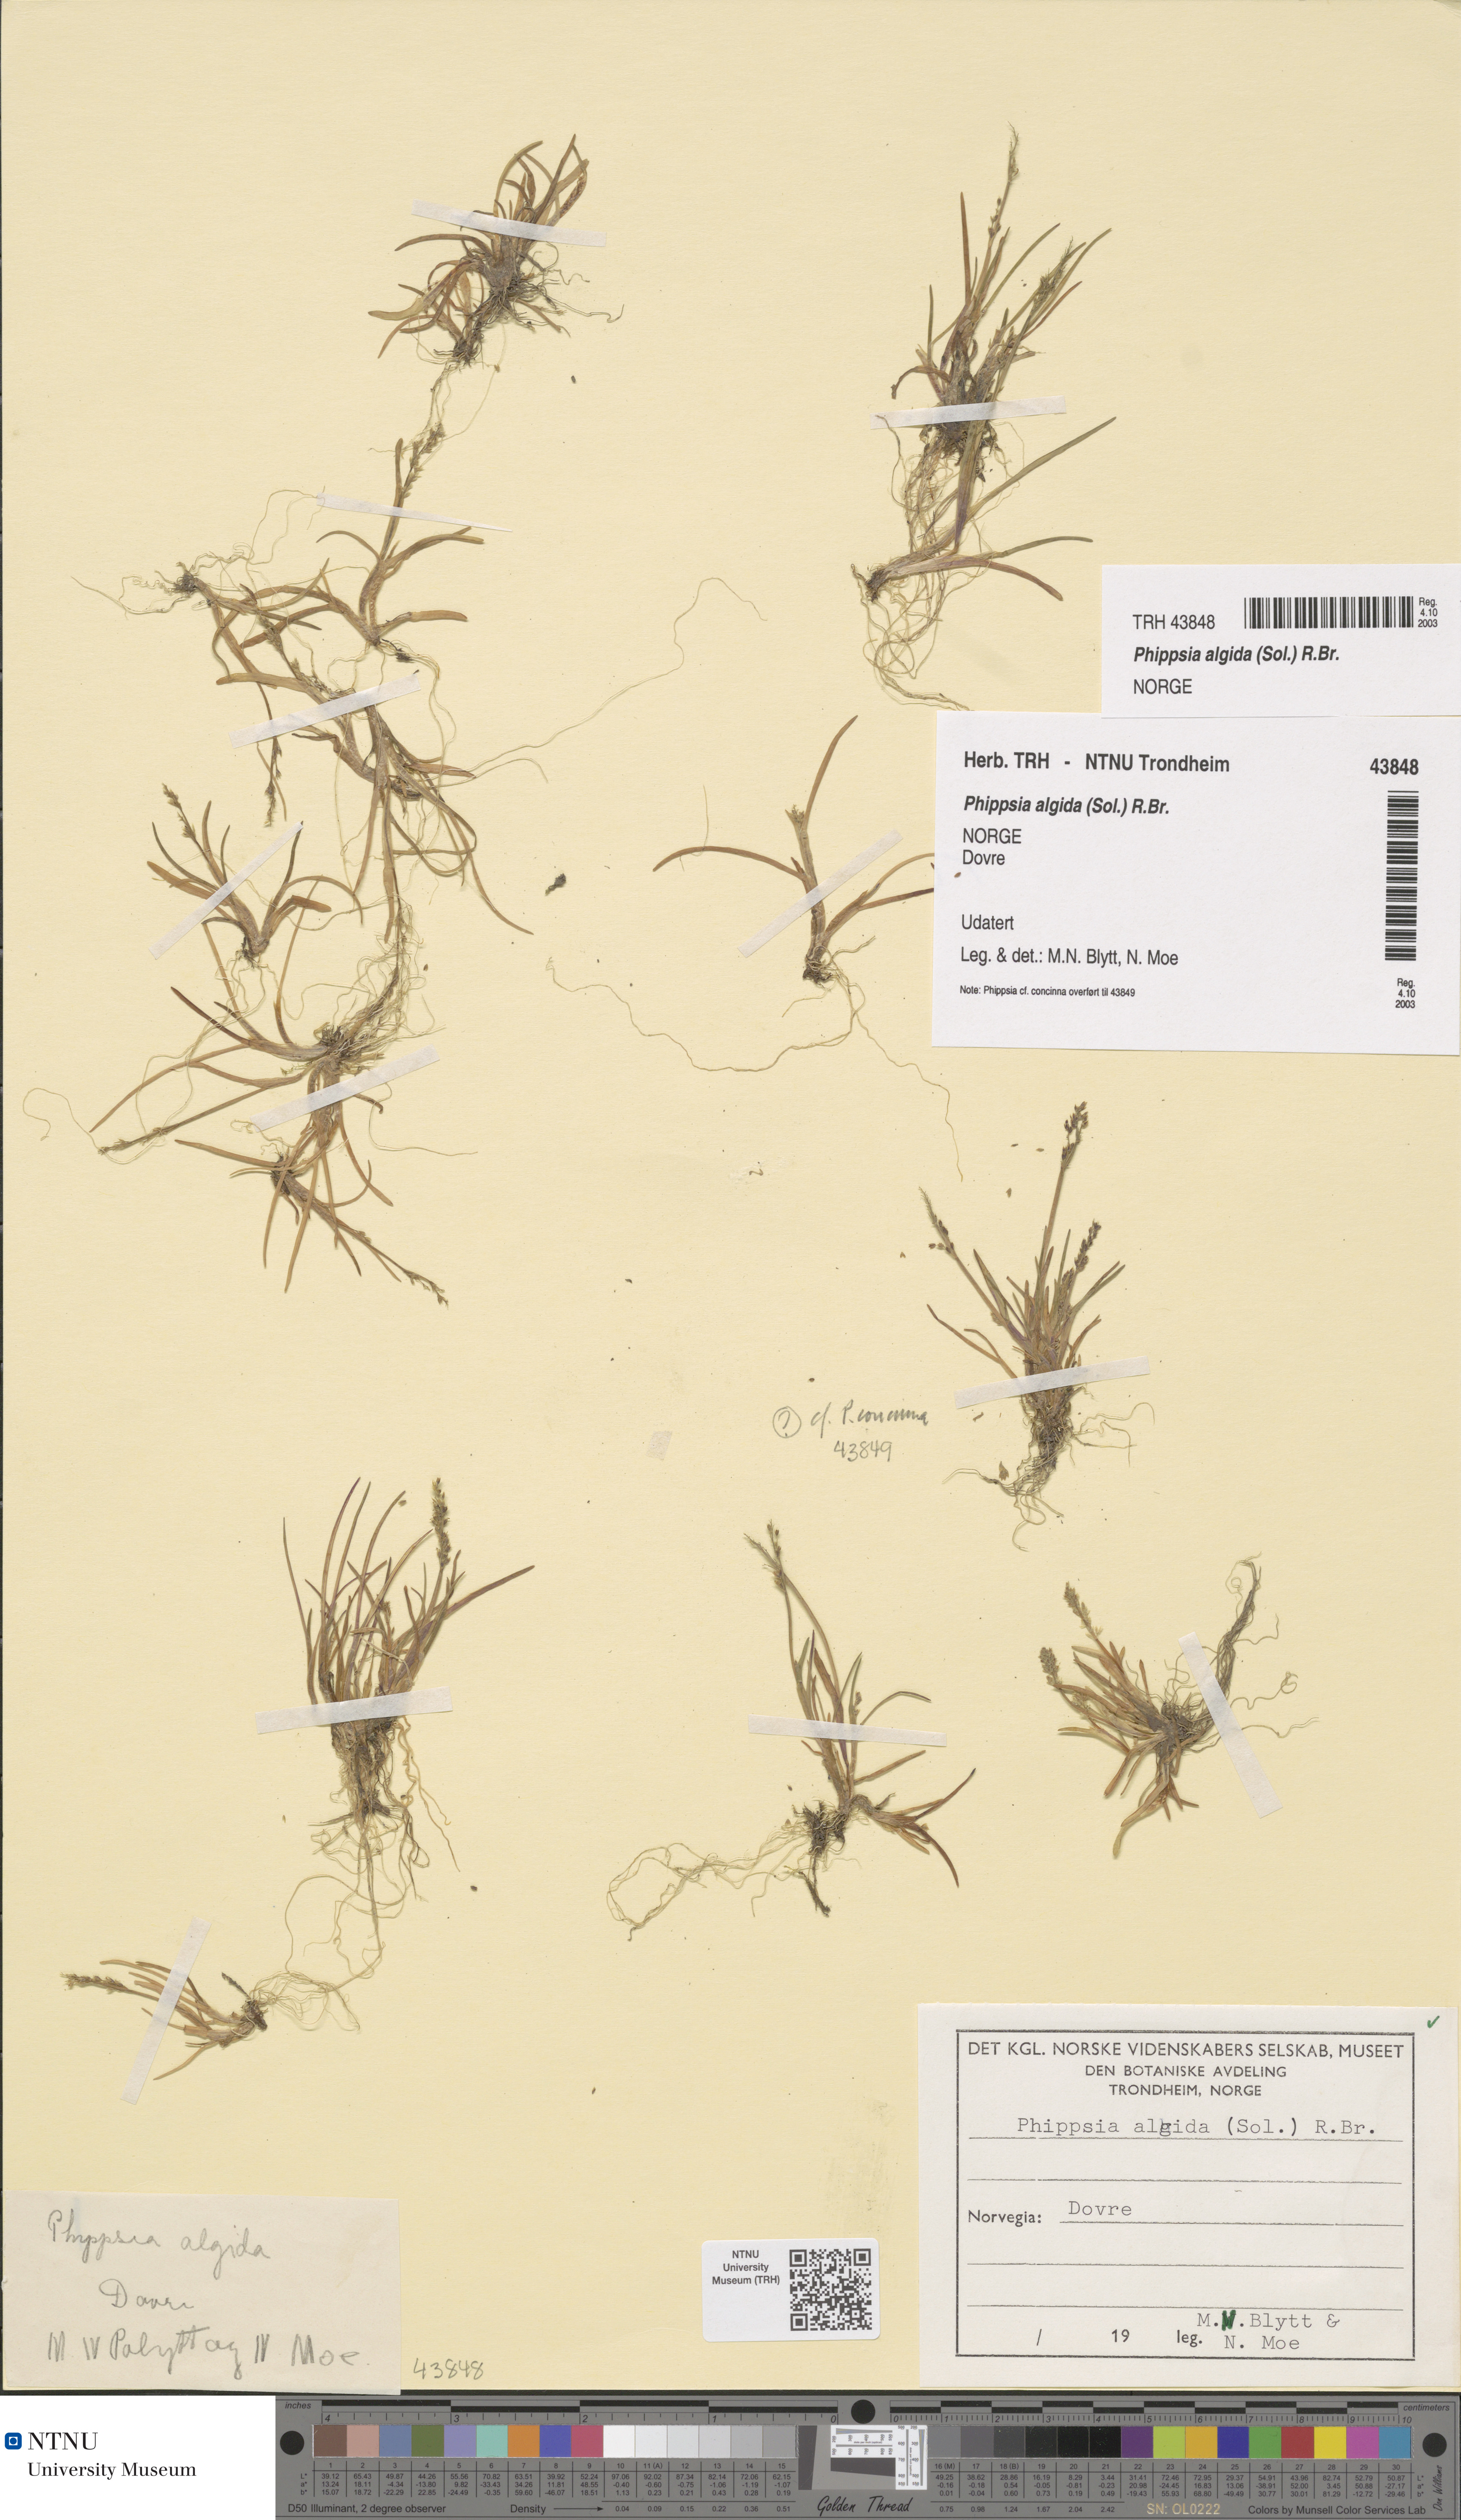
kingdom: Plantae
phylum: Tracheophyta
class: Liliopsida
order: Poales
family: Poaceae
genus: Phippsia
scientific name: Phippsia algida
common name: Ice grass
